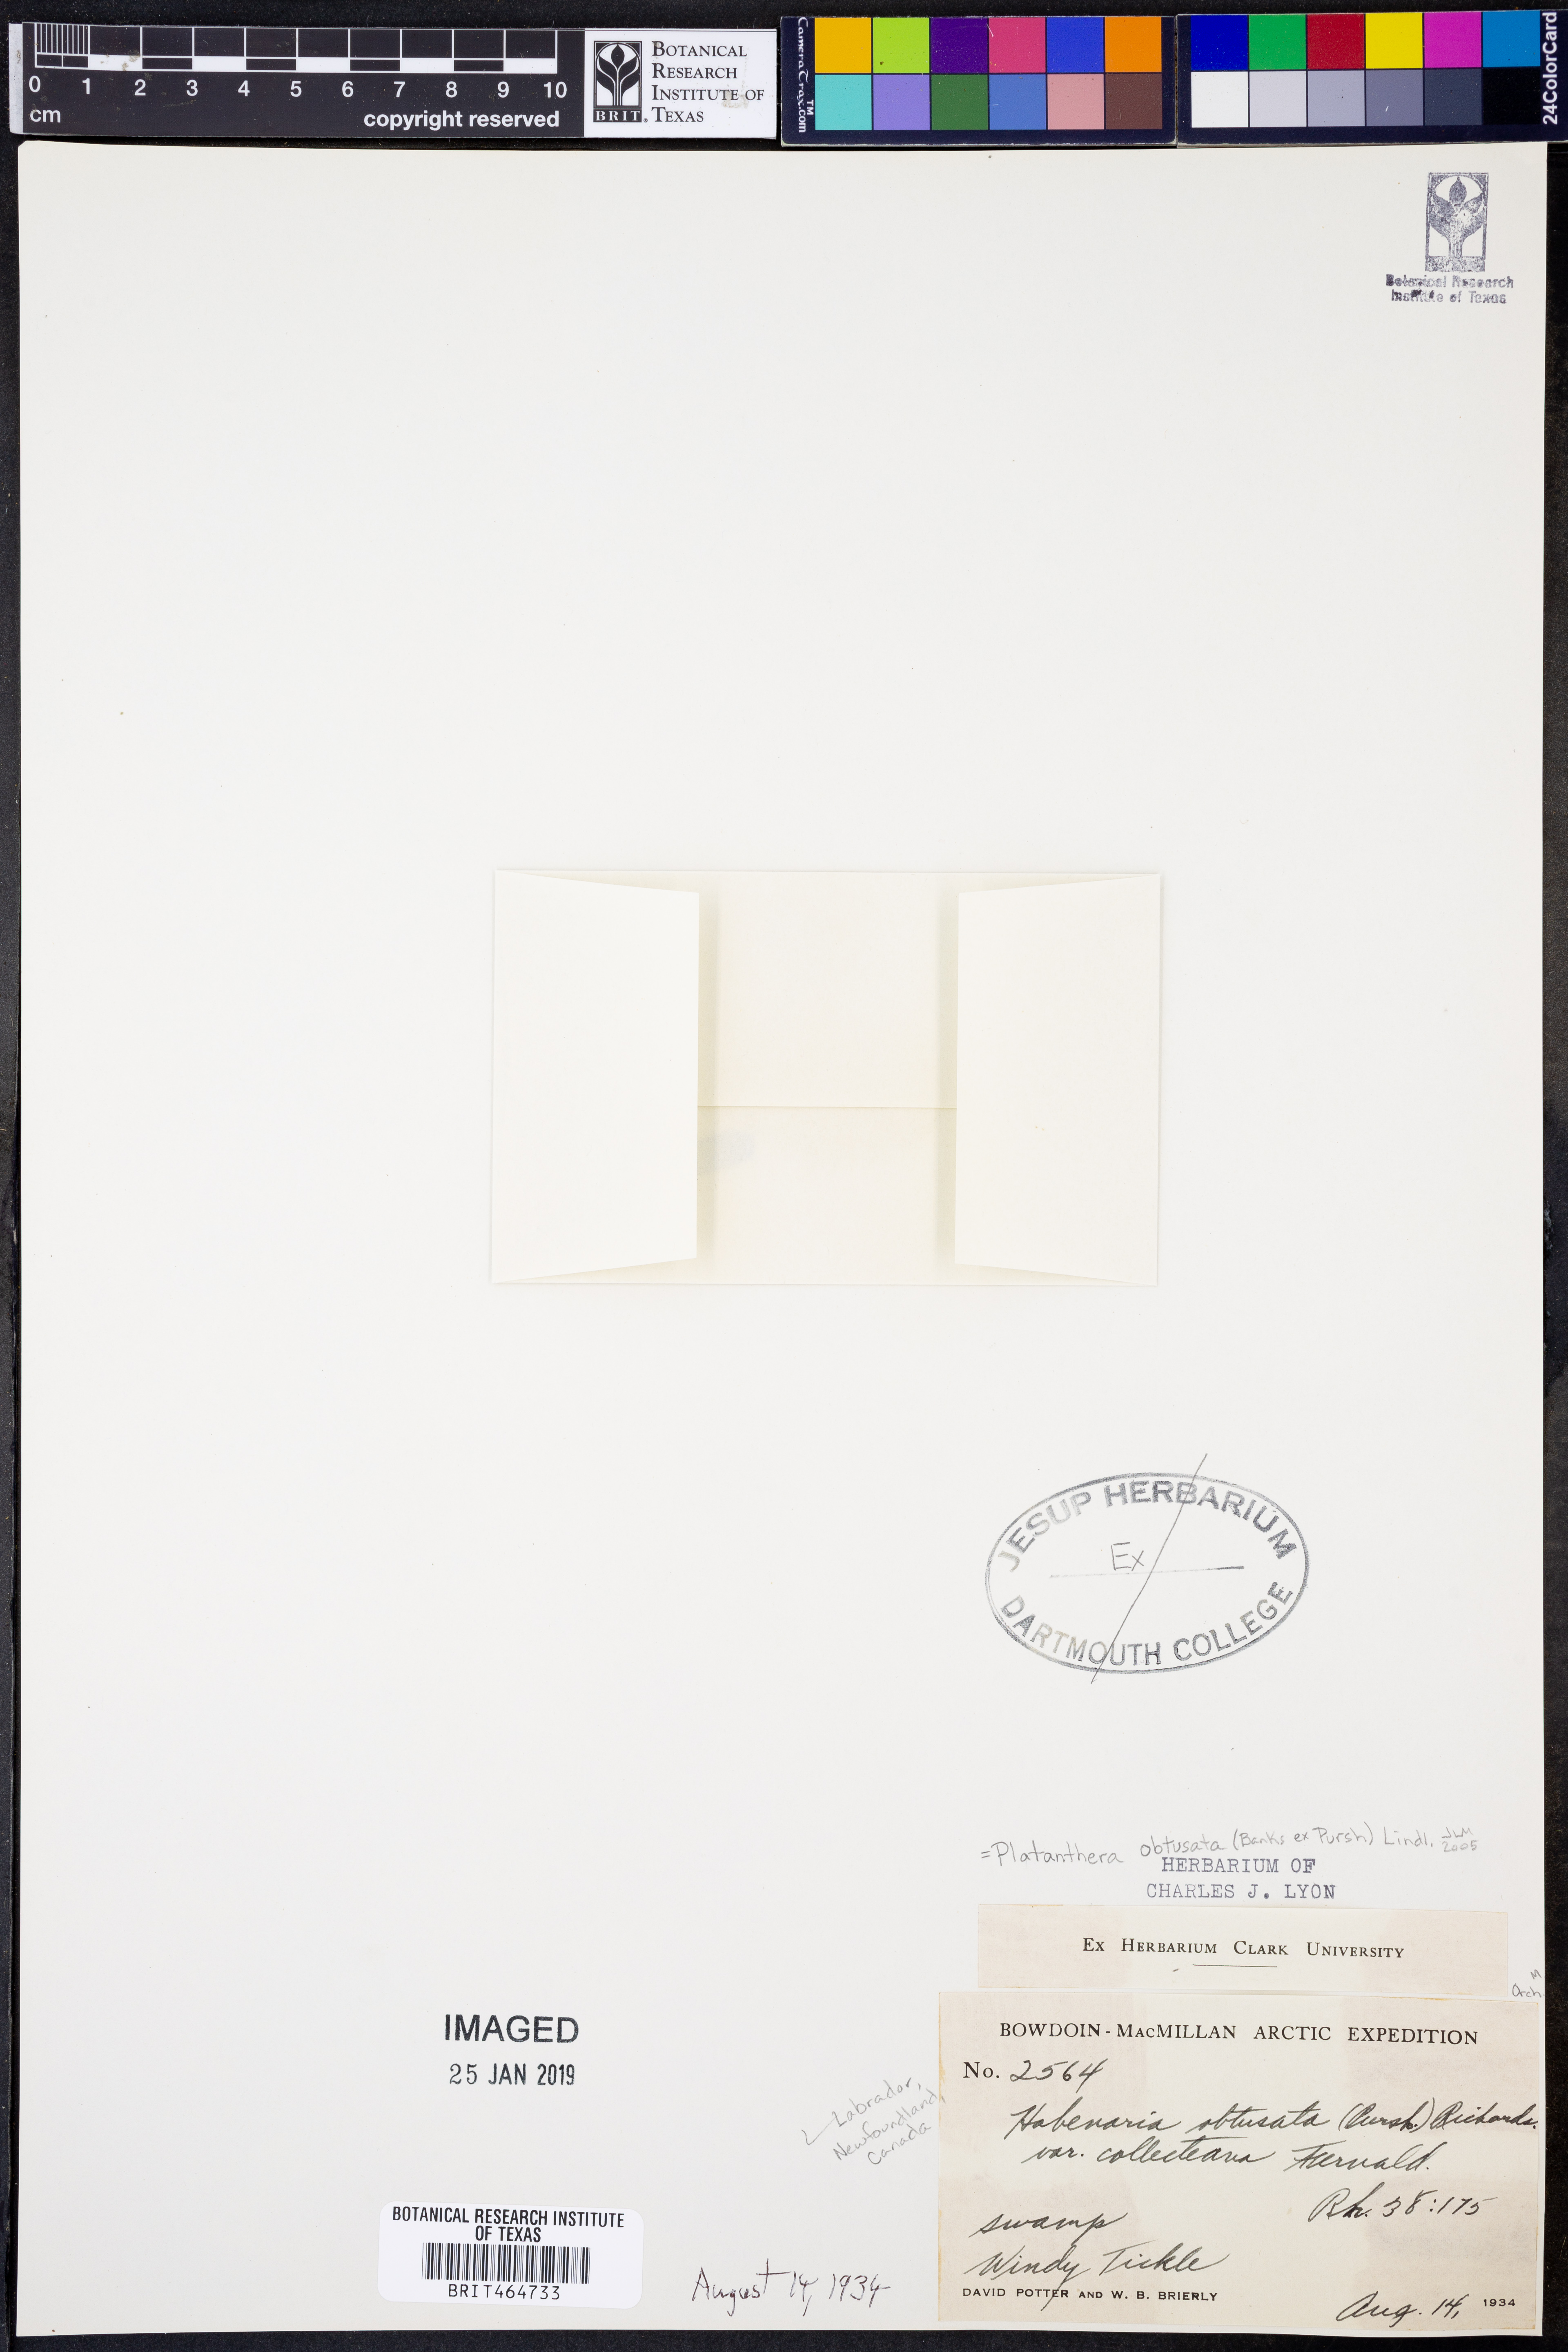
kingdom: Plantae
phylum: Tracheophyta
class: Liliopsida
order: Asparagales
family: Orchidaceae
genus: Platanthera
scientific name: Platanthera obtusata
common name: Blunt bog orchid
